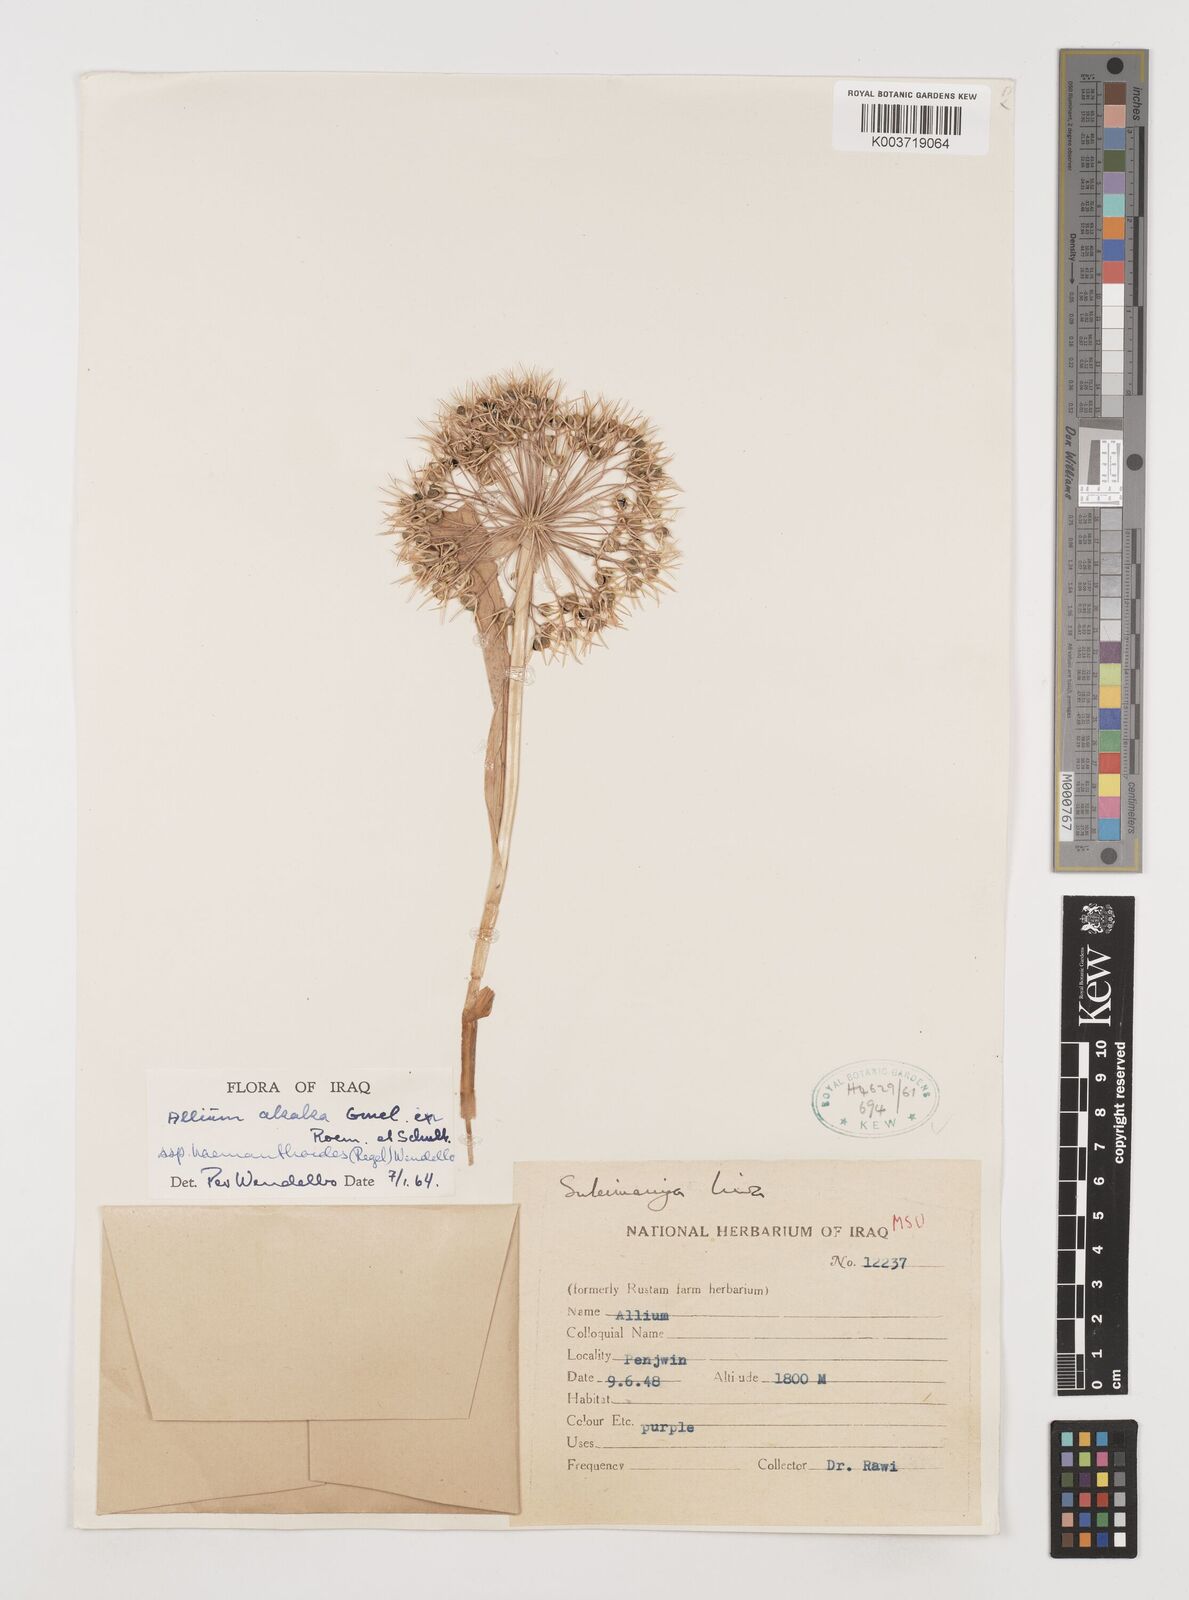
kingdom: Plantae
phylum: Tracheophyta
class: Liliopsida
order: Asparagales
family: Amaryllidaceae
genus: Allium
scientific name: Allium haemanthoides
